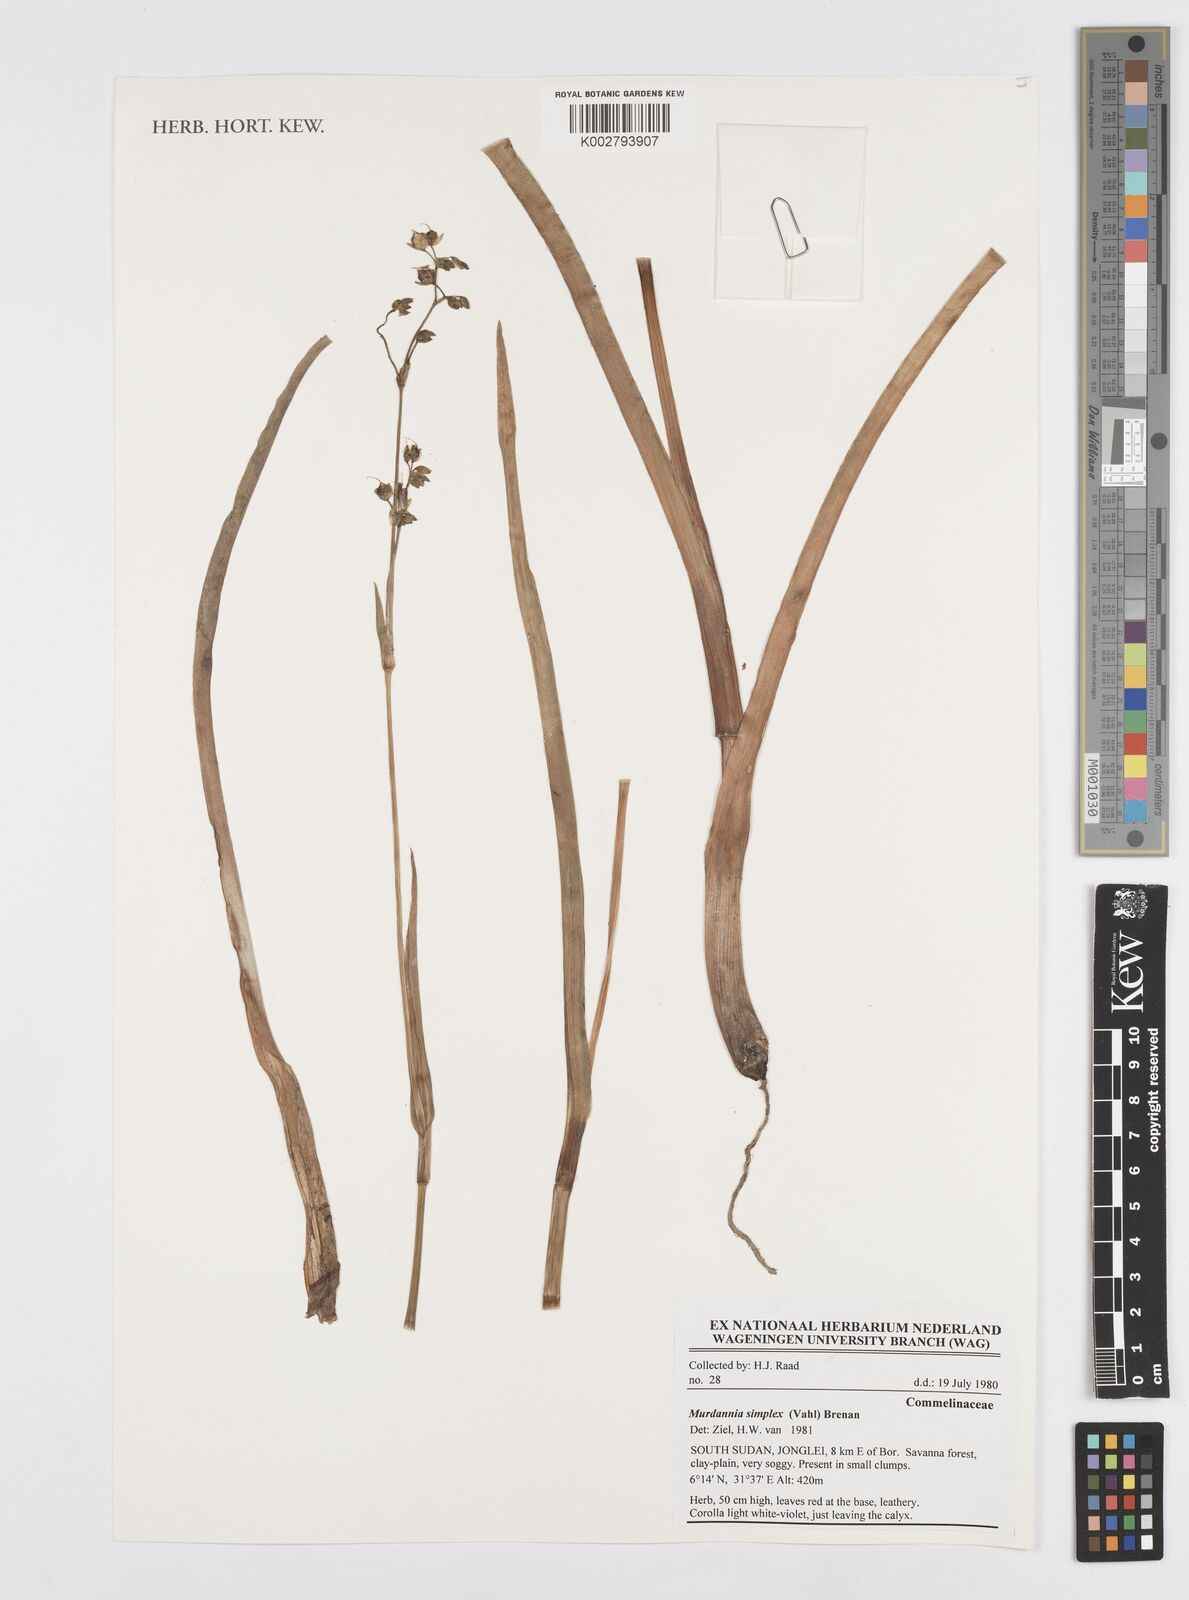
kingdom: Plantae
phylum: Tracheophyta
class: Liliopsida
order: Commelinales
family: Commelinaceae
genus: Murdannia
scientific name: Murdannia simplex
